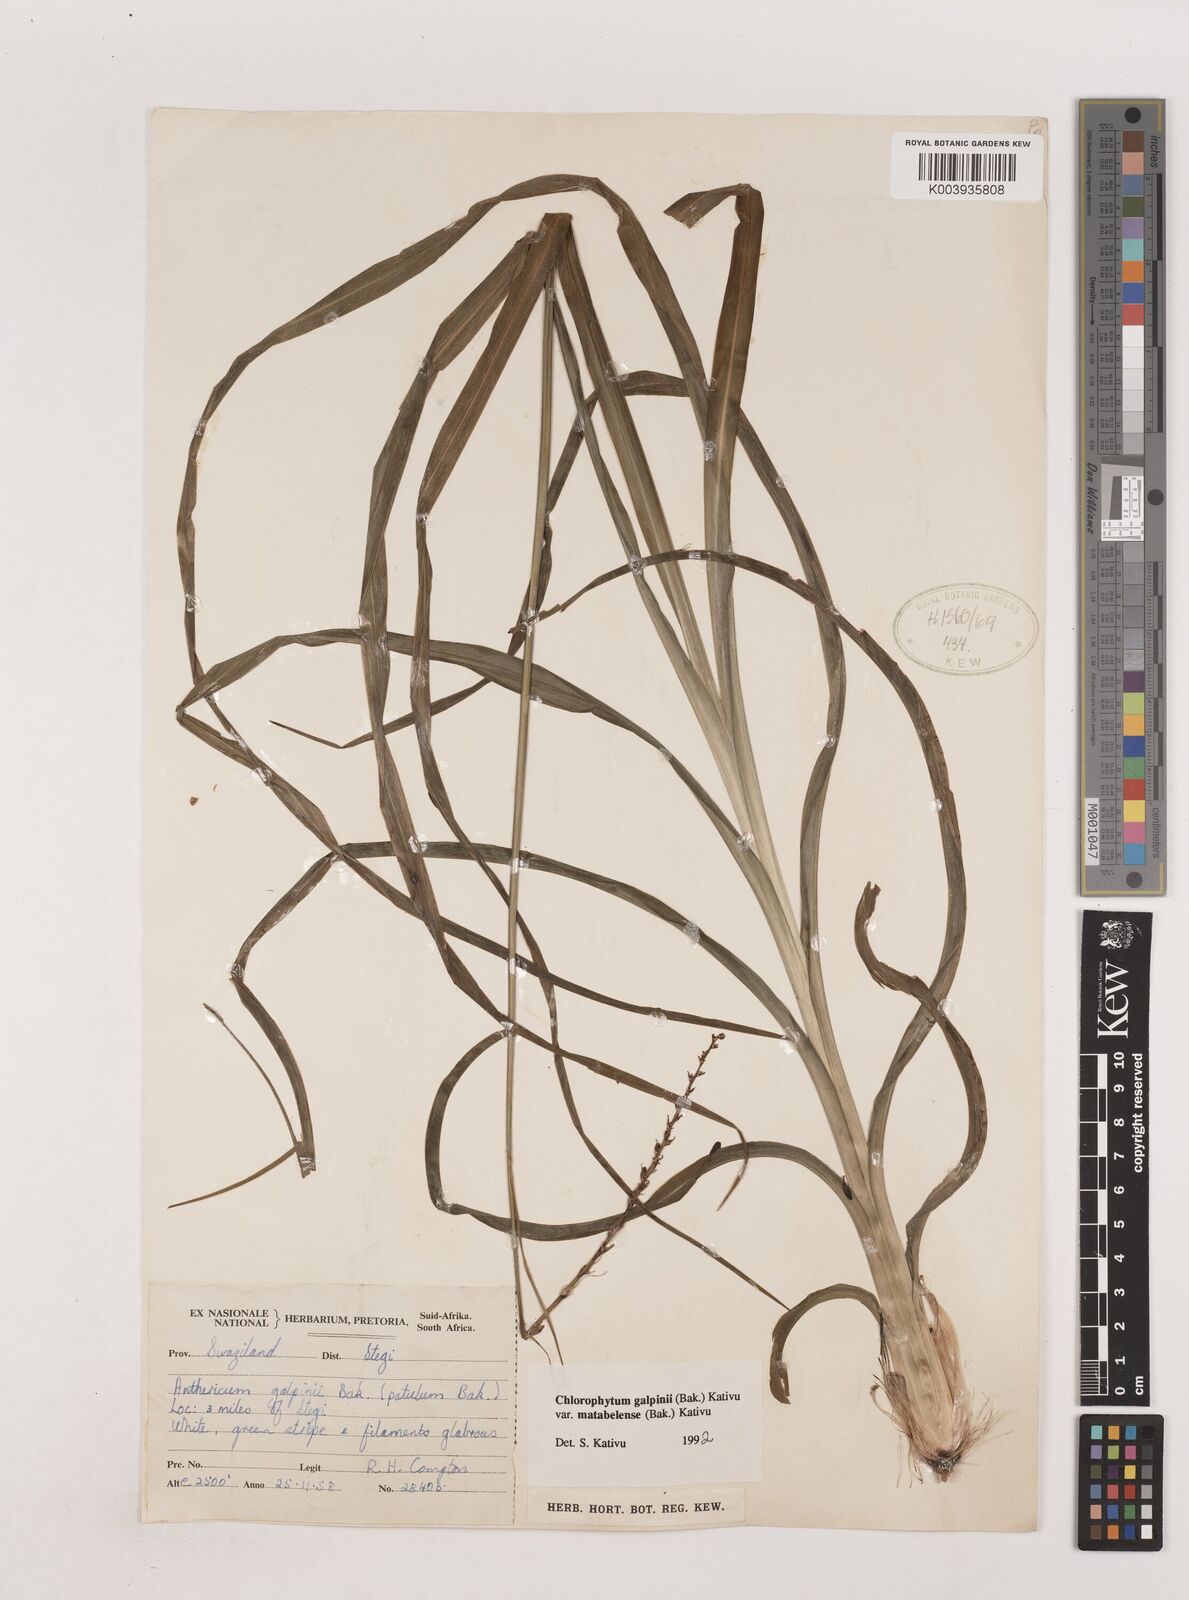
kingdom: Plantae
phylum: Tracheophyta
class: Liliopsida
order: Asparagales
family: Asparagaceae
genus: Chlorophytum
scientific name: Chlorophytum galpinii
